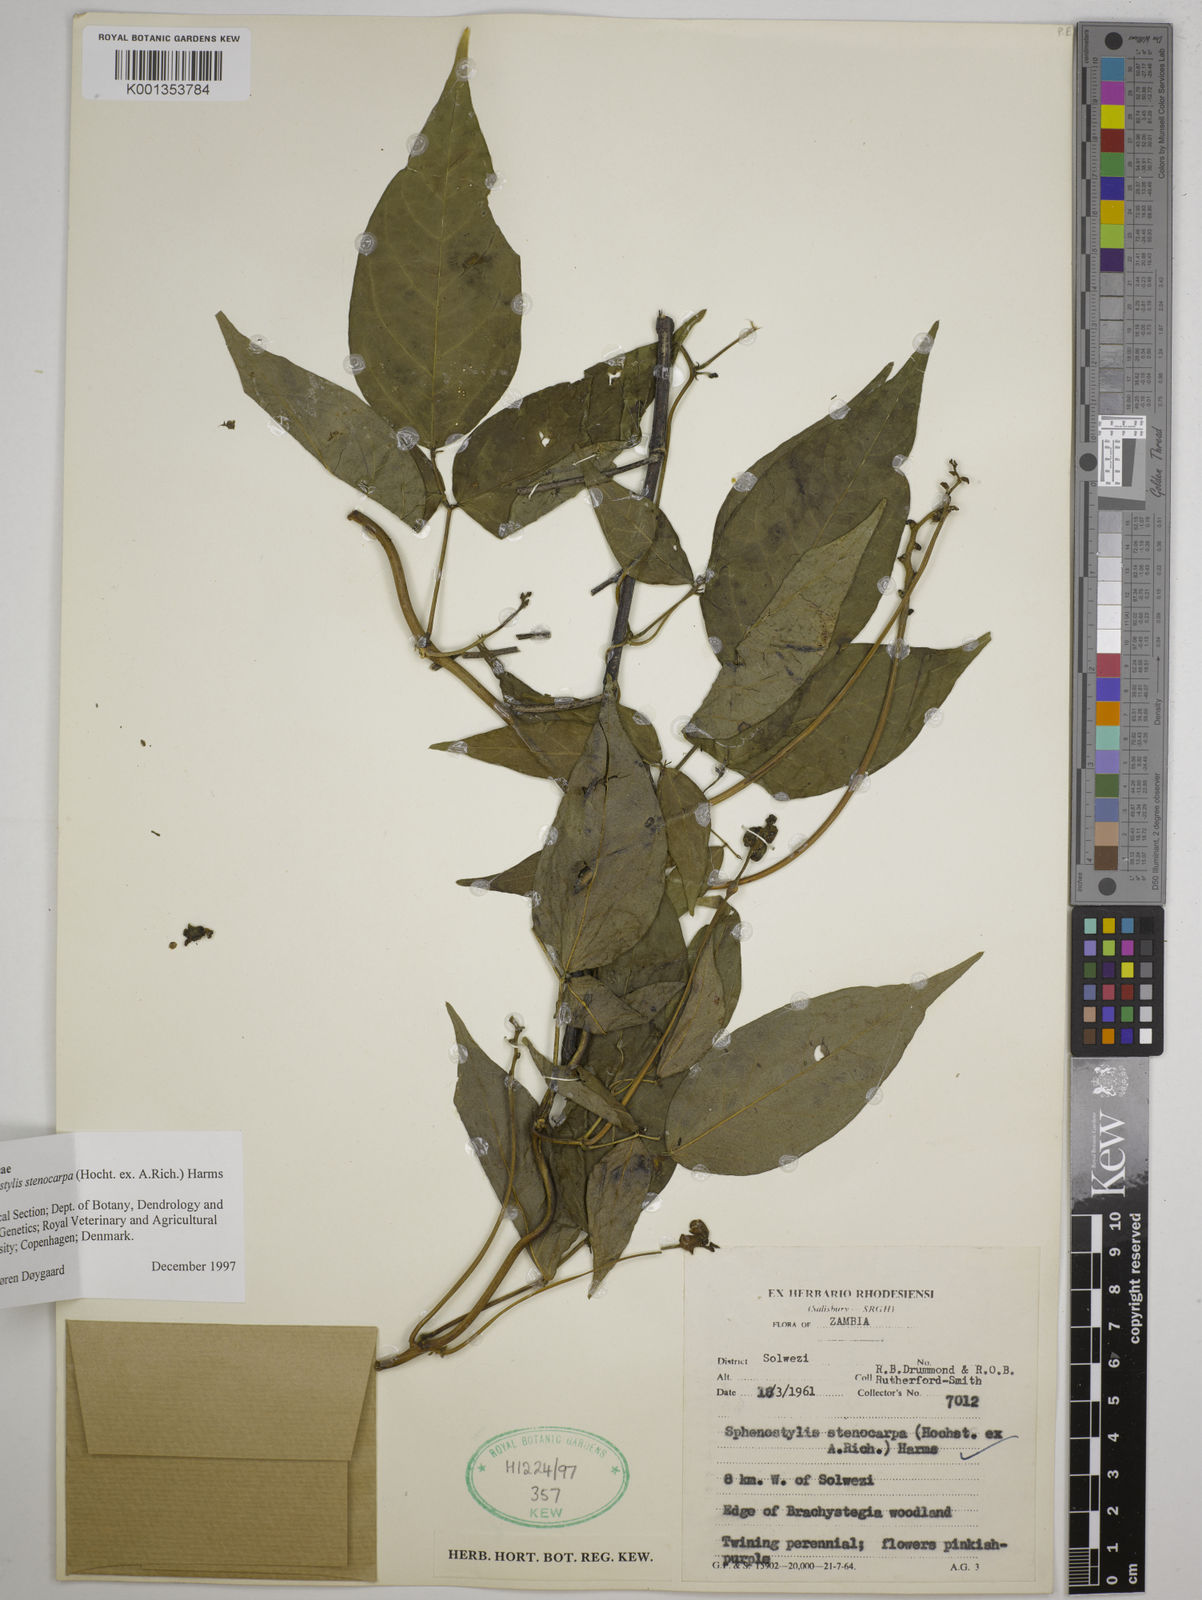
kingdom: Plantae
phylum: Tracheophyta
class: Magnoliopsida
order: Fabales
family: Fabaceae
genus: Sphenostylis
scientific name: Sphenostylis stenocarpa
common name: Yam-pea
